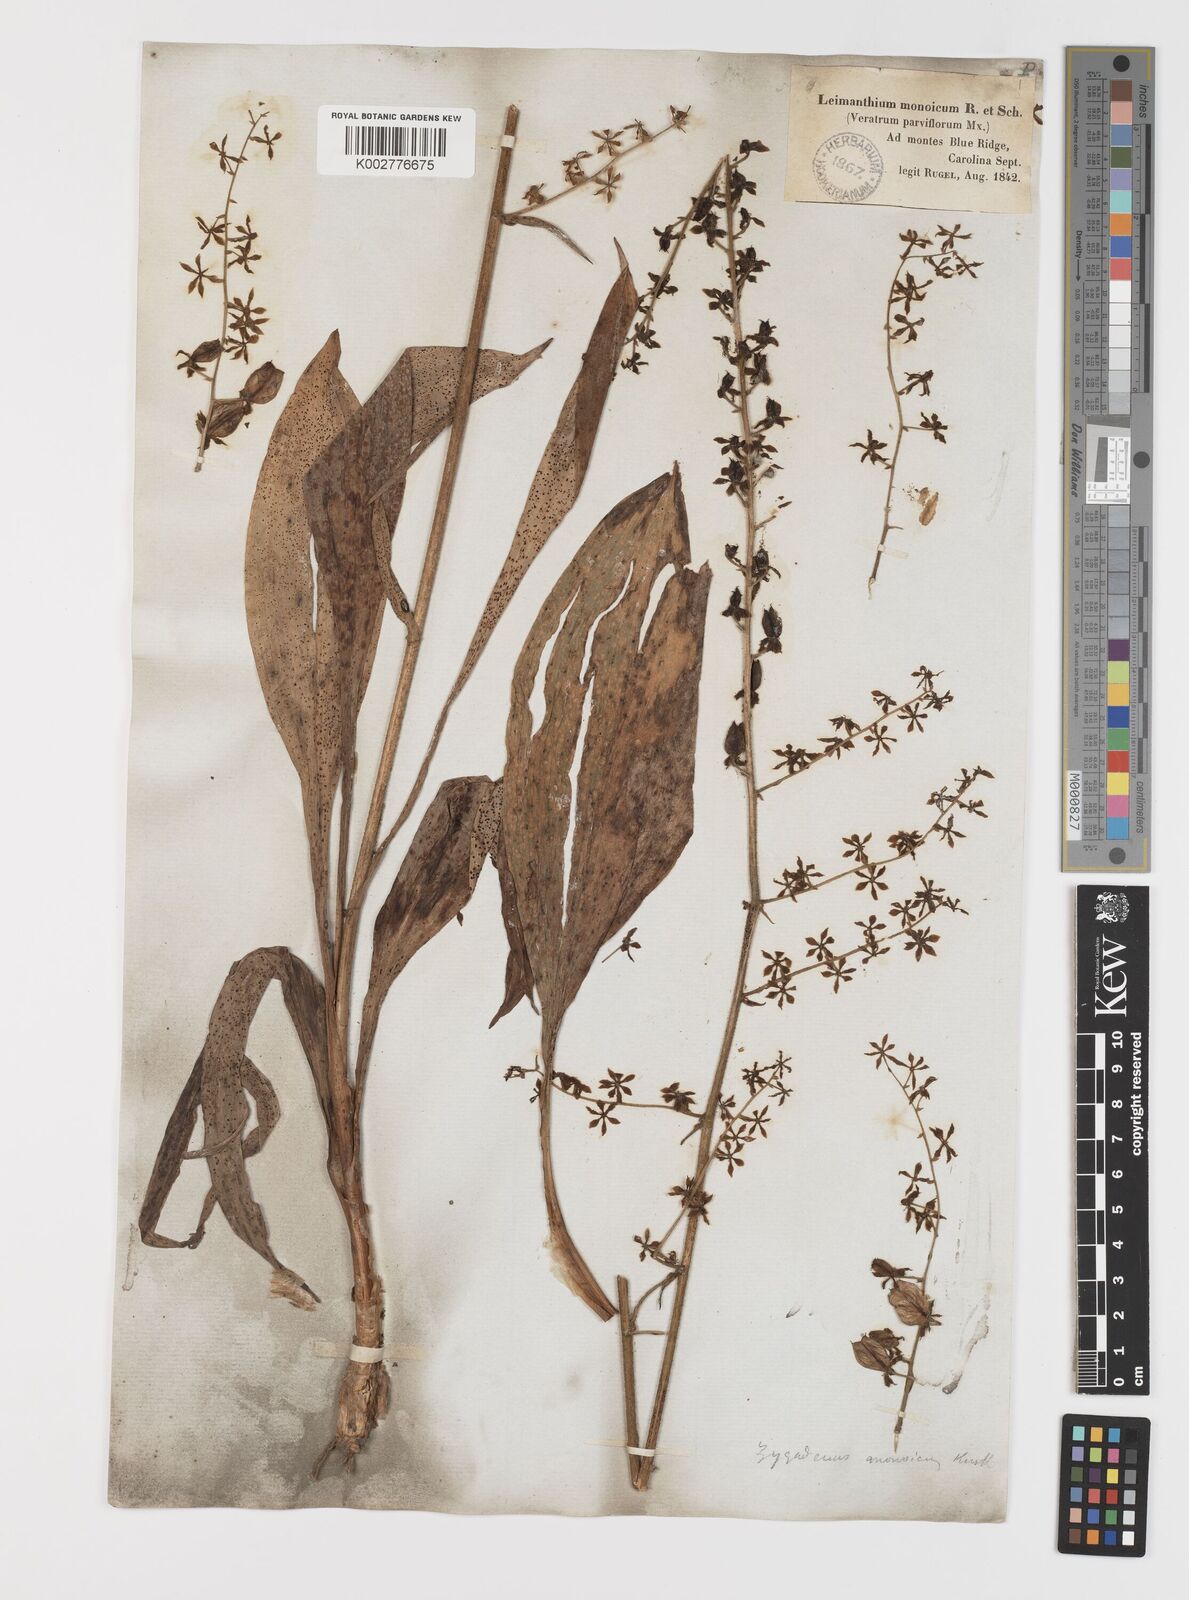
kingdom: Plantae
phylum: Tracheophyta
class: Liliopsida
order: Liliales
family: Melanthiaceae
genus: Melanthium
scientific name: Melanthium parviflorum
